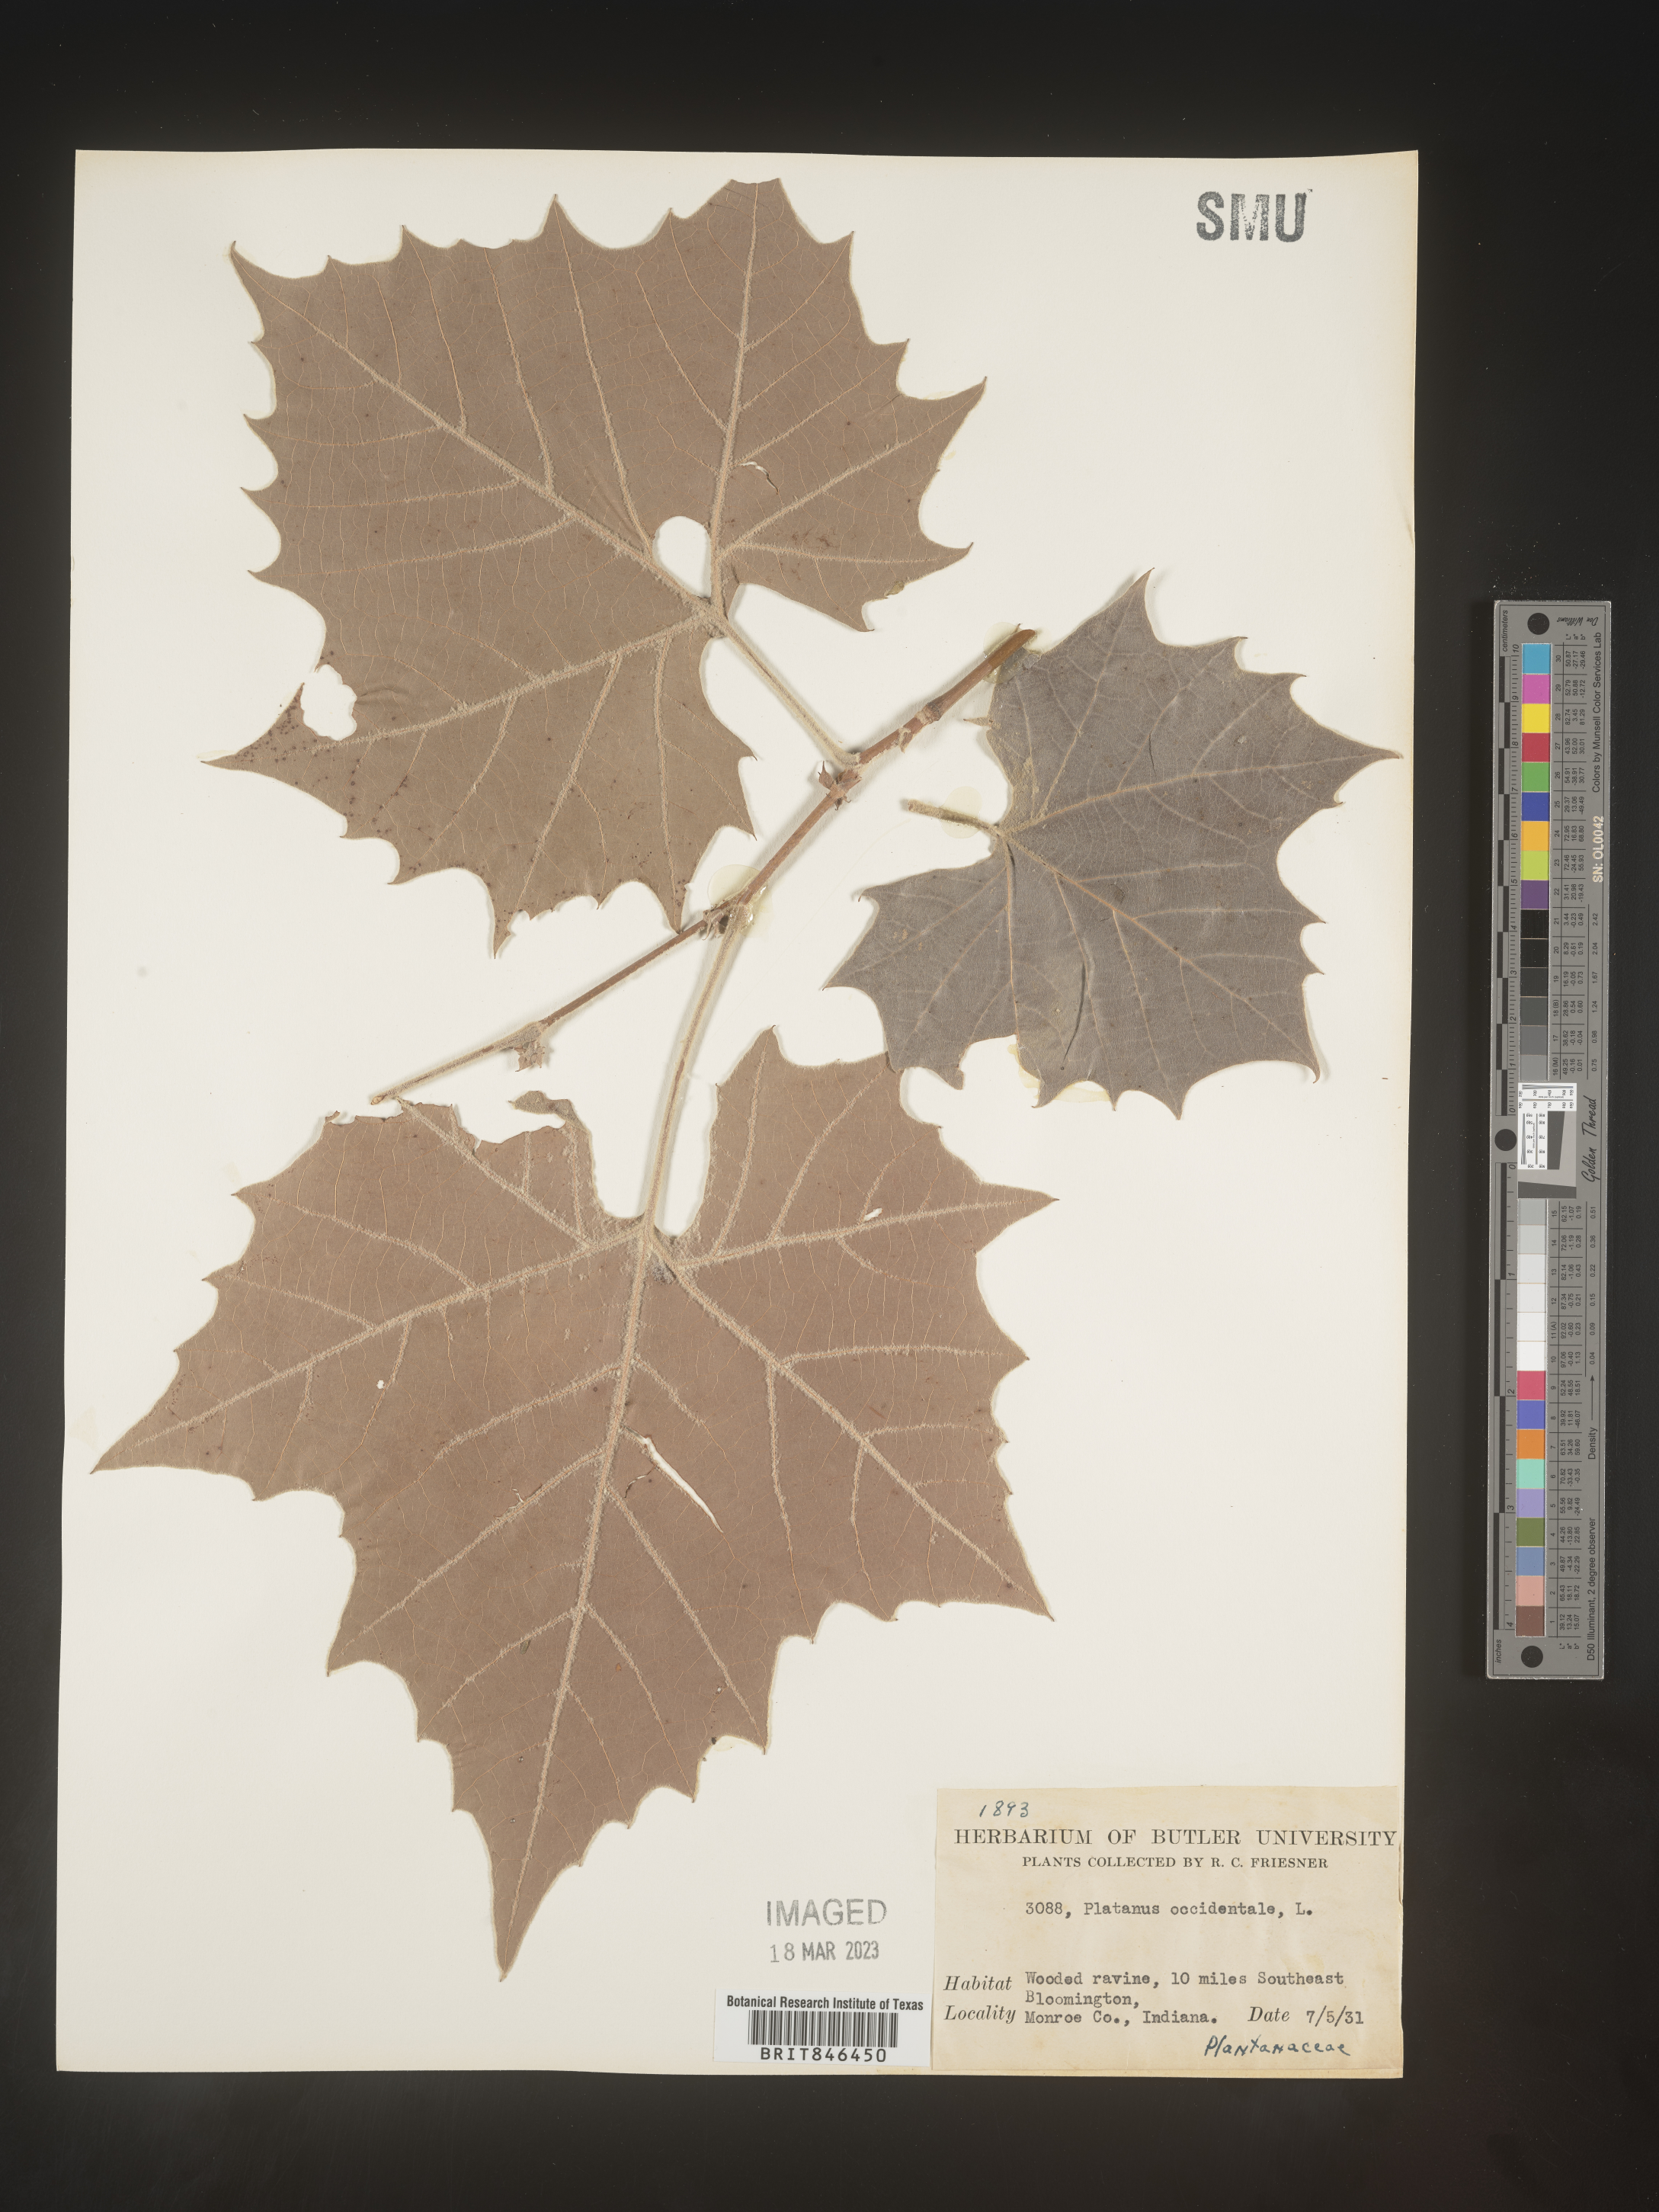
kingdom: Plantae
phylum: Tracheophyta
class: Magnoliopsida
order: Proteales
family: Platanaceae
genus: Platanus
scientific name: Platanus occidentalis
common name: American sycamore
